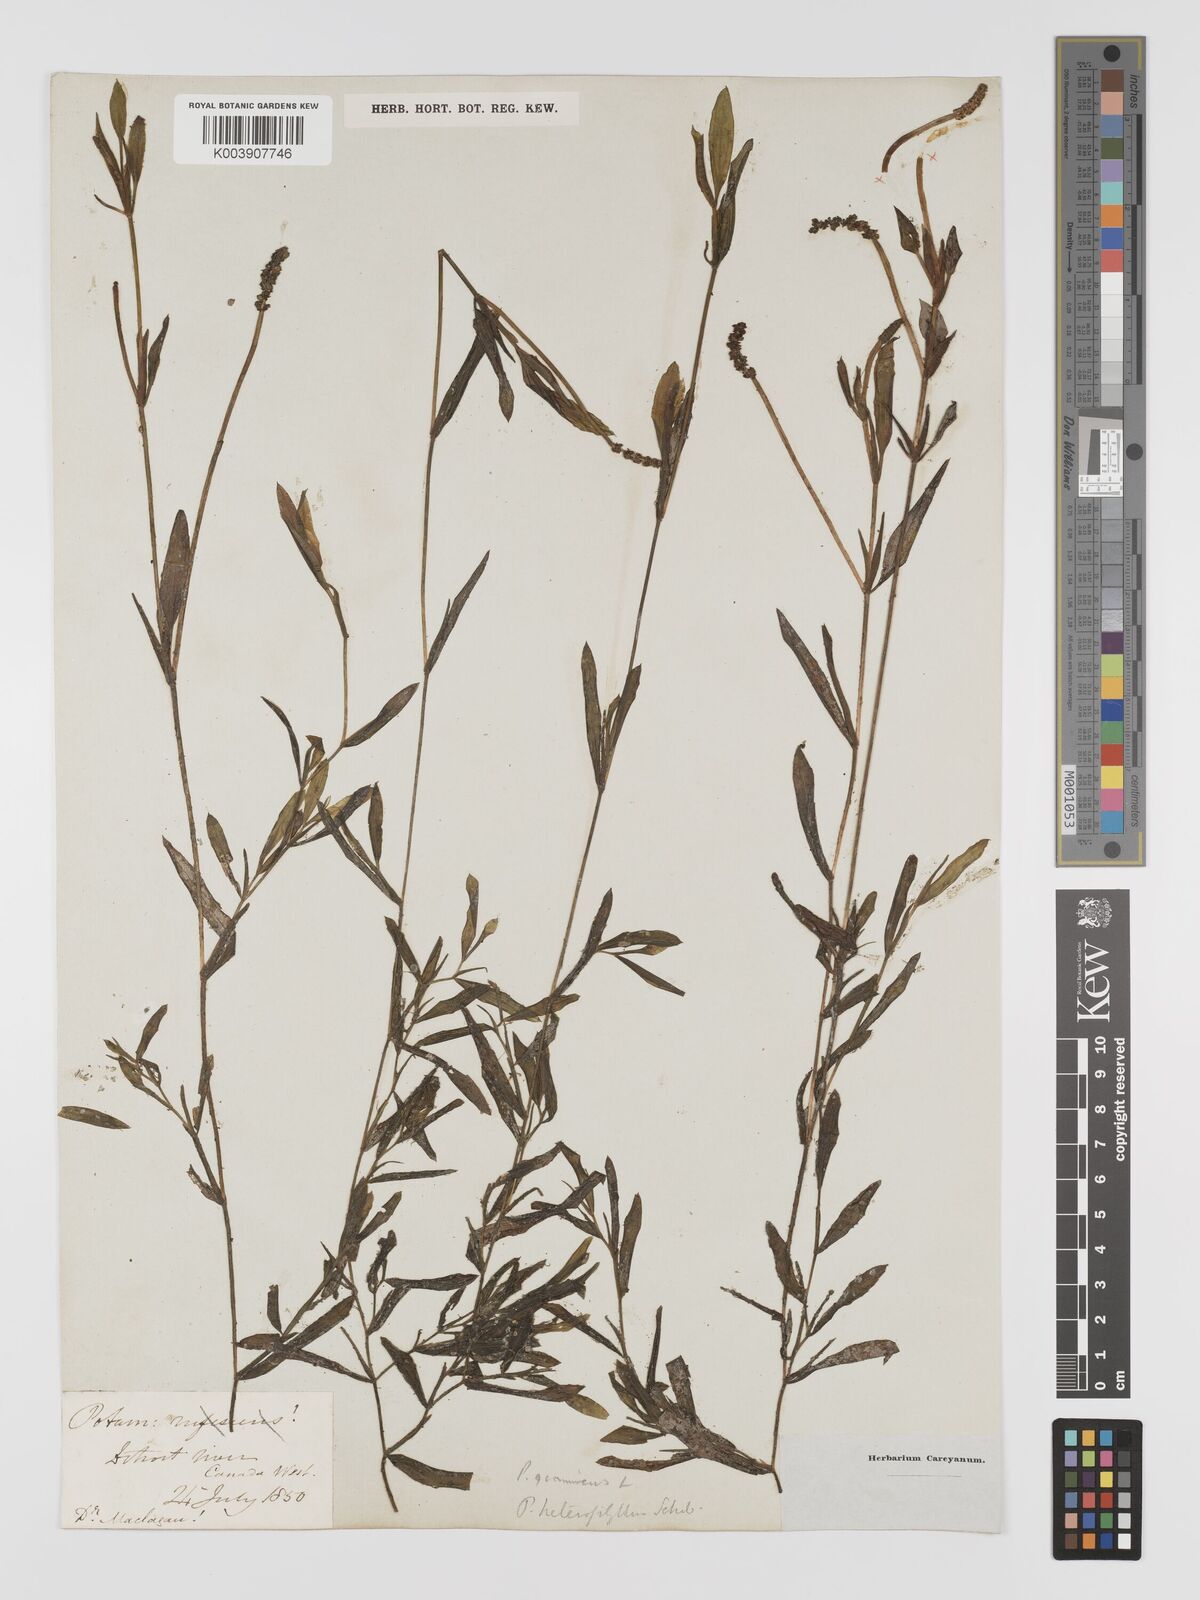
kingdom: Plantae
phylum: Tracheophyta
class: Liliopsida
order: Alismatales
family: Potamogetonaceae
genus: Potamogeton
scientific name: Potamogeton gramineus
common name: Various-leaved pondweed
